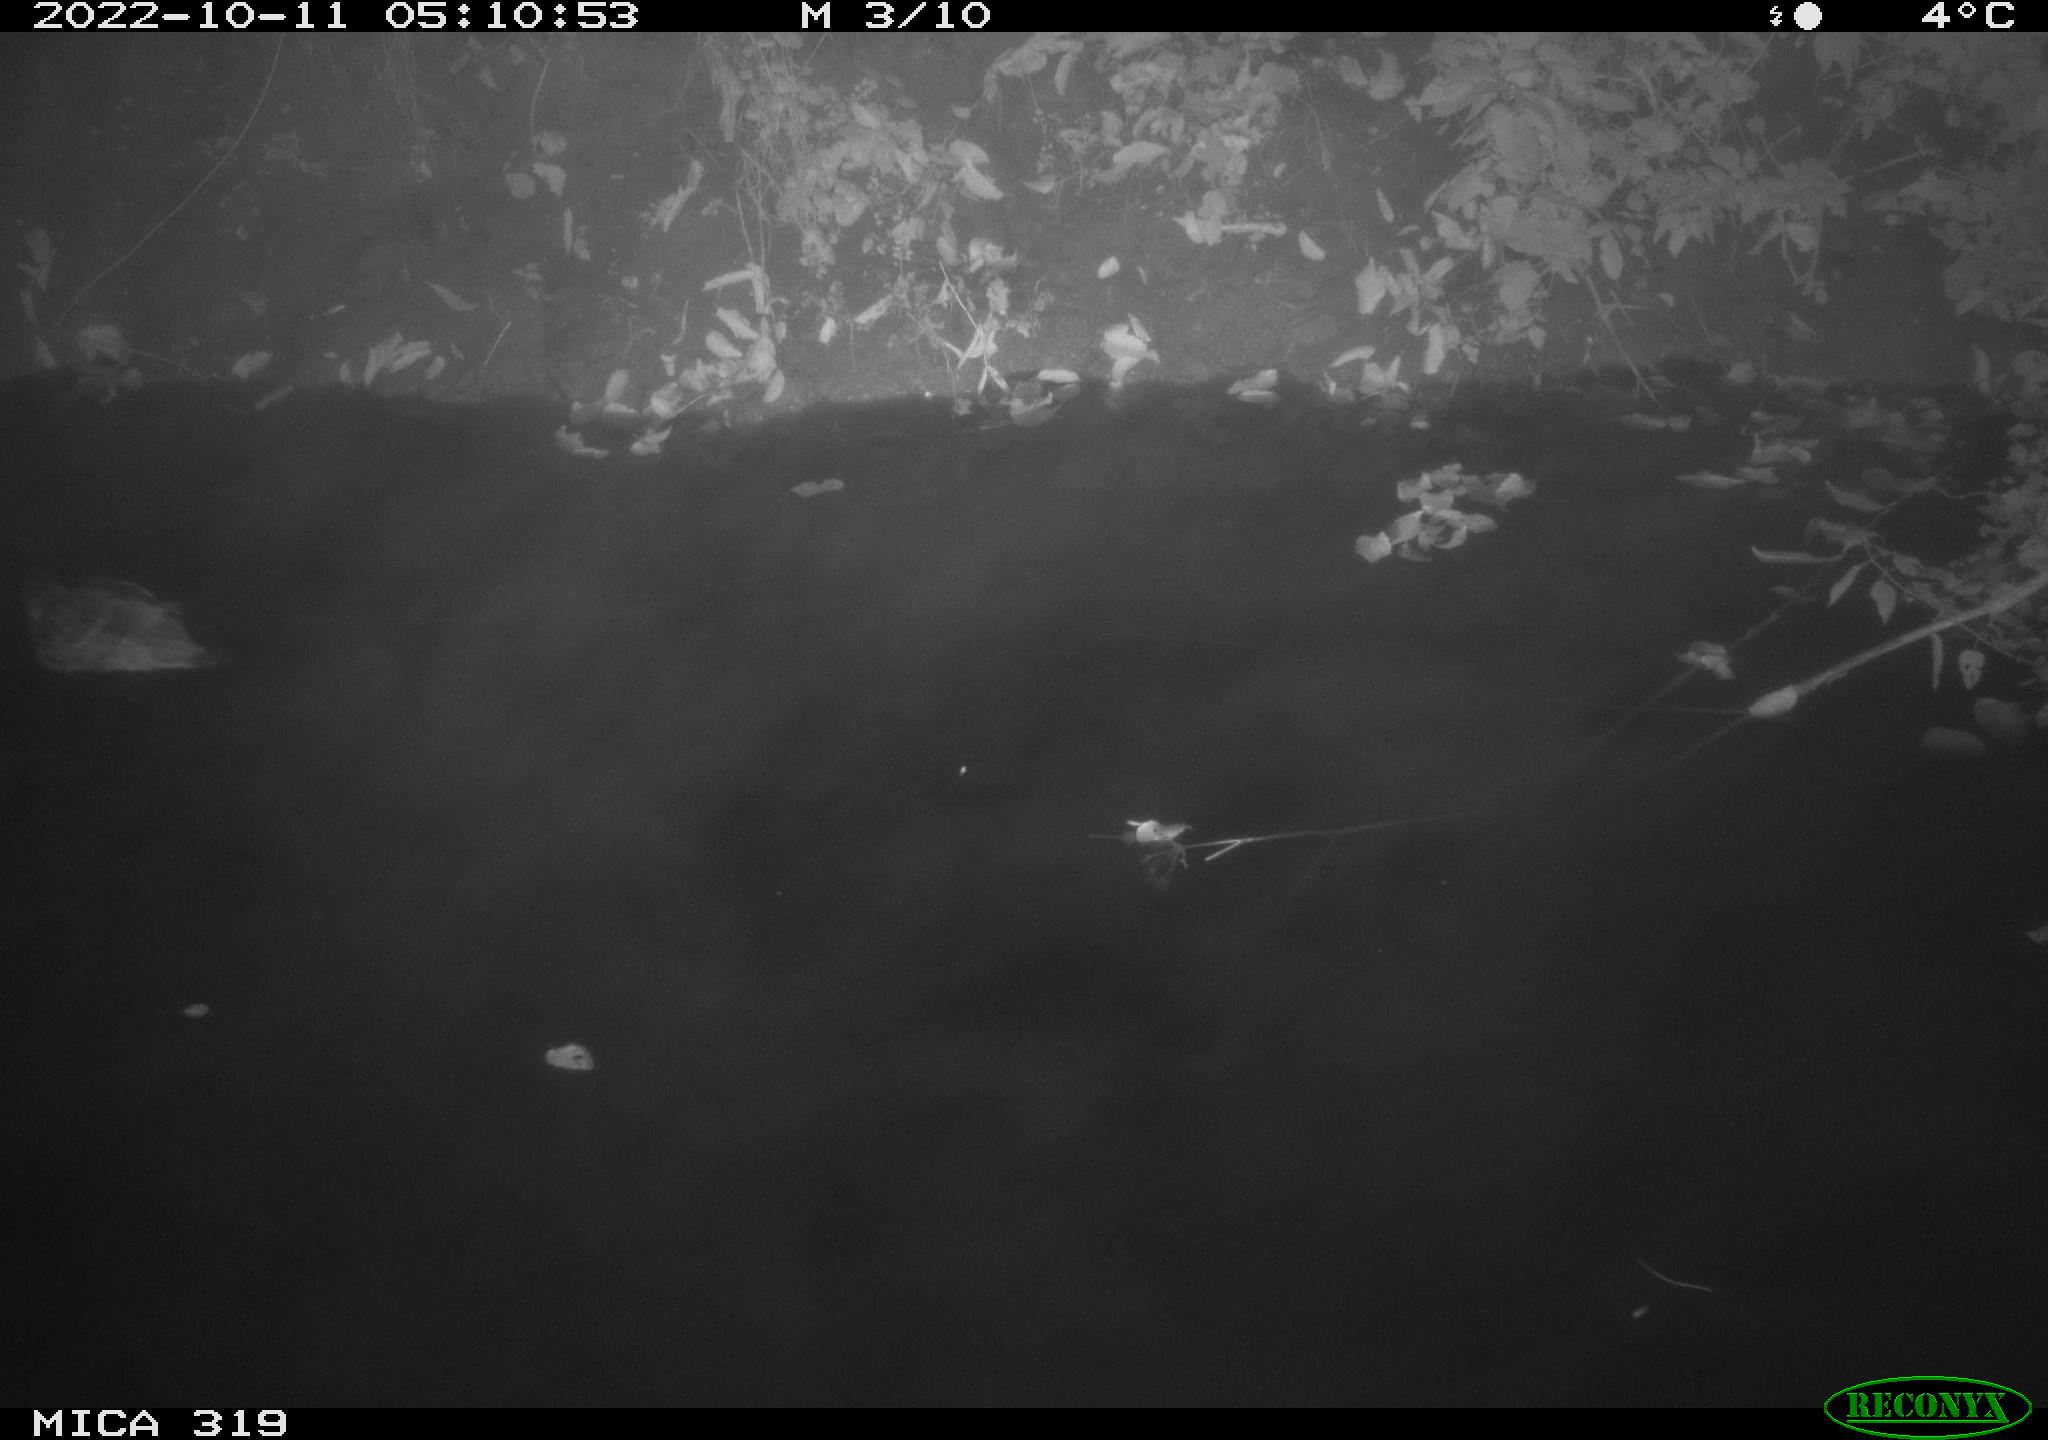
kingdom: Animalia
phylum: Chordata
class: Aves
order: Anseriformes
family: Anatidae
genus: Anas
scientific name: Anas
